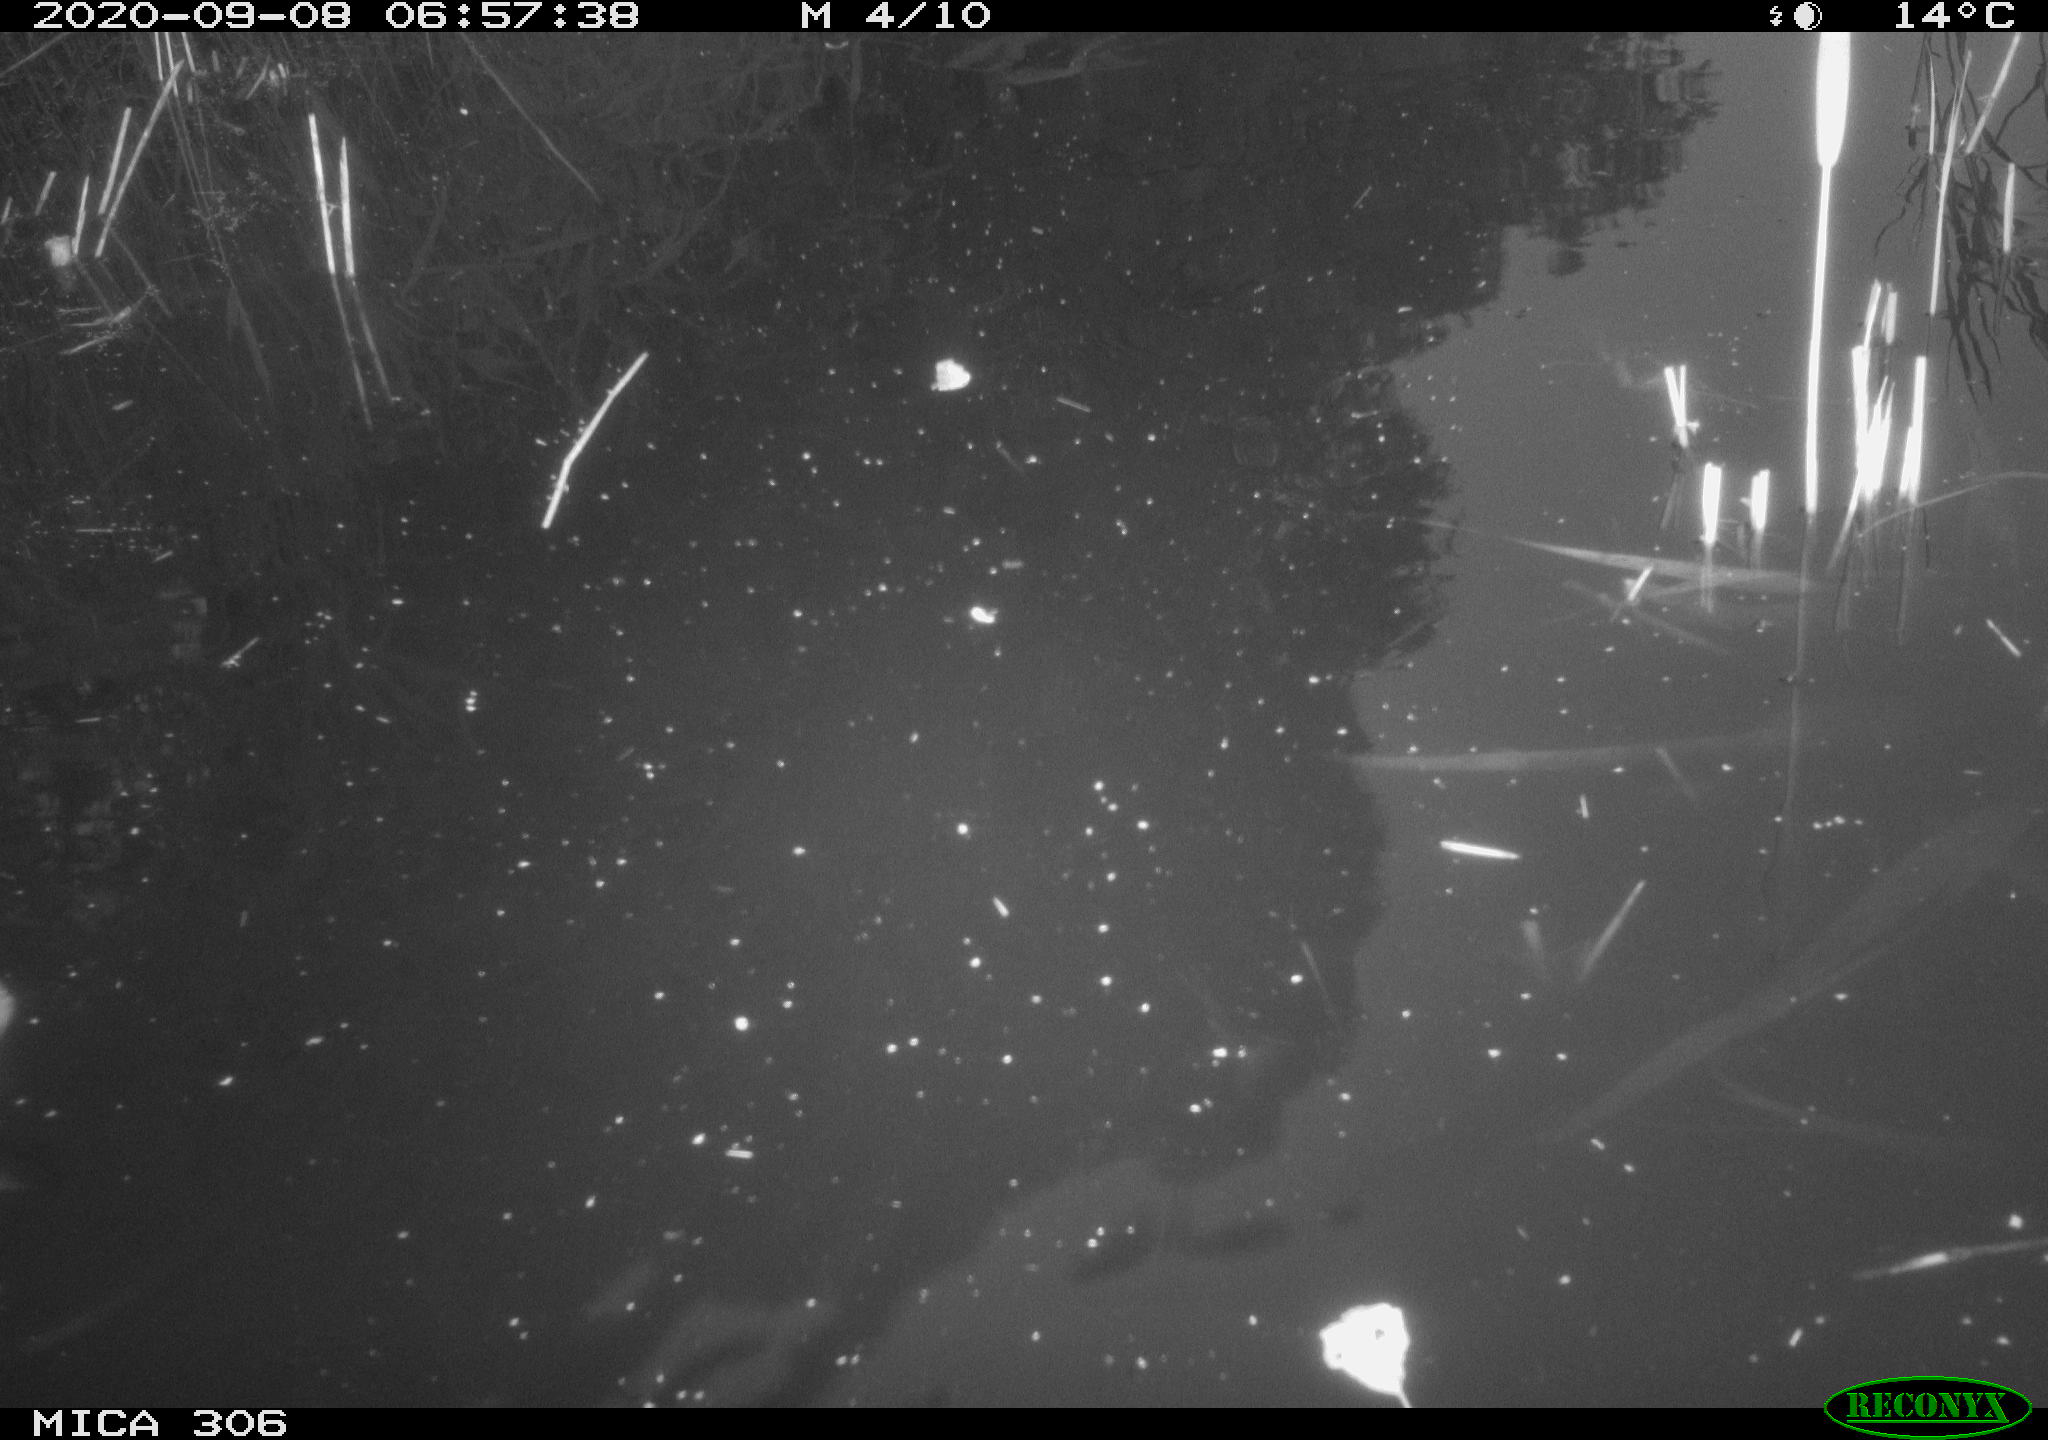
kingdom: Animalia
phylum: Chordata
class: Aves
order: Gruiformes
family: Rallidae
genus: Gallinula
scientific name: Gallinula chloropus
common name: Common moorhen
